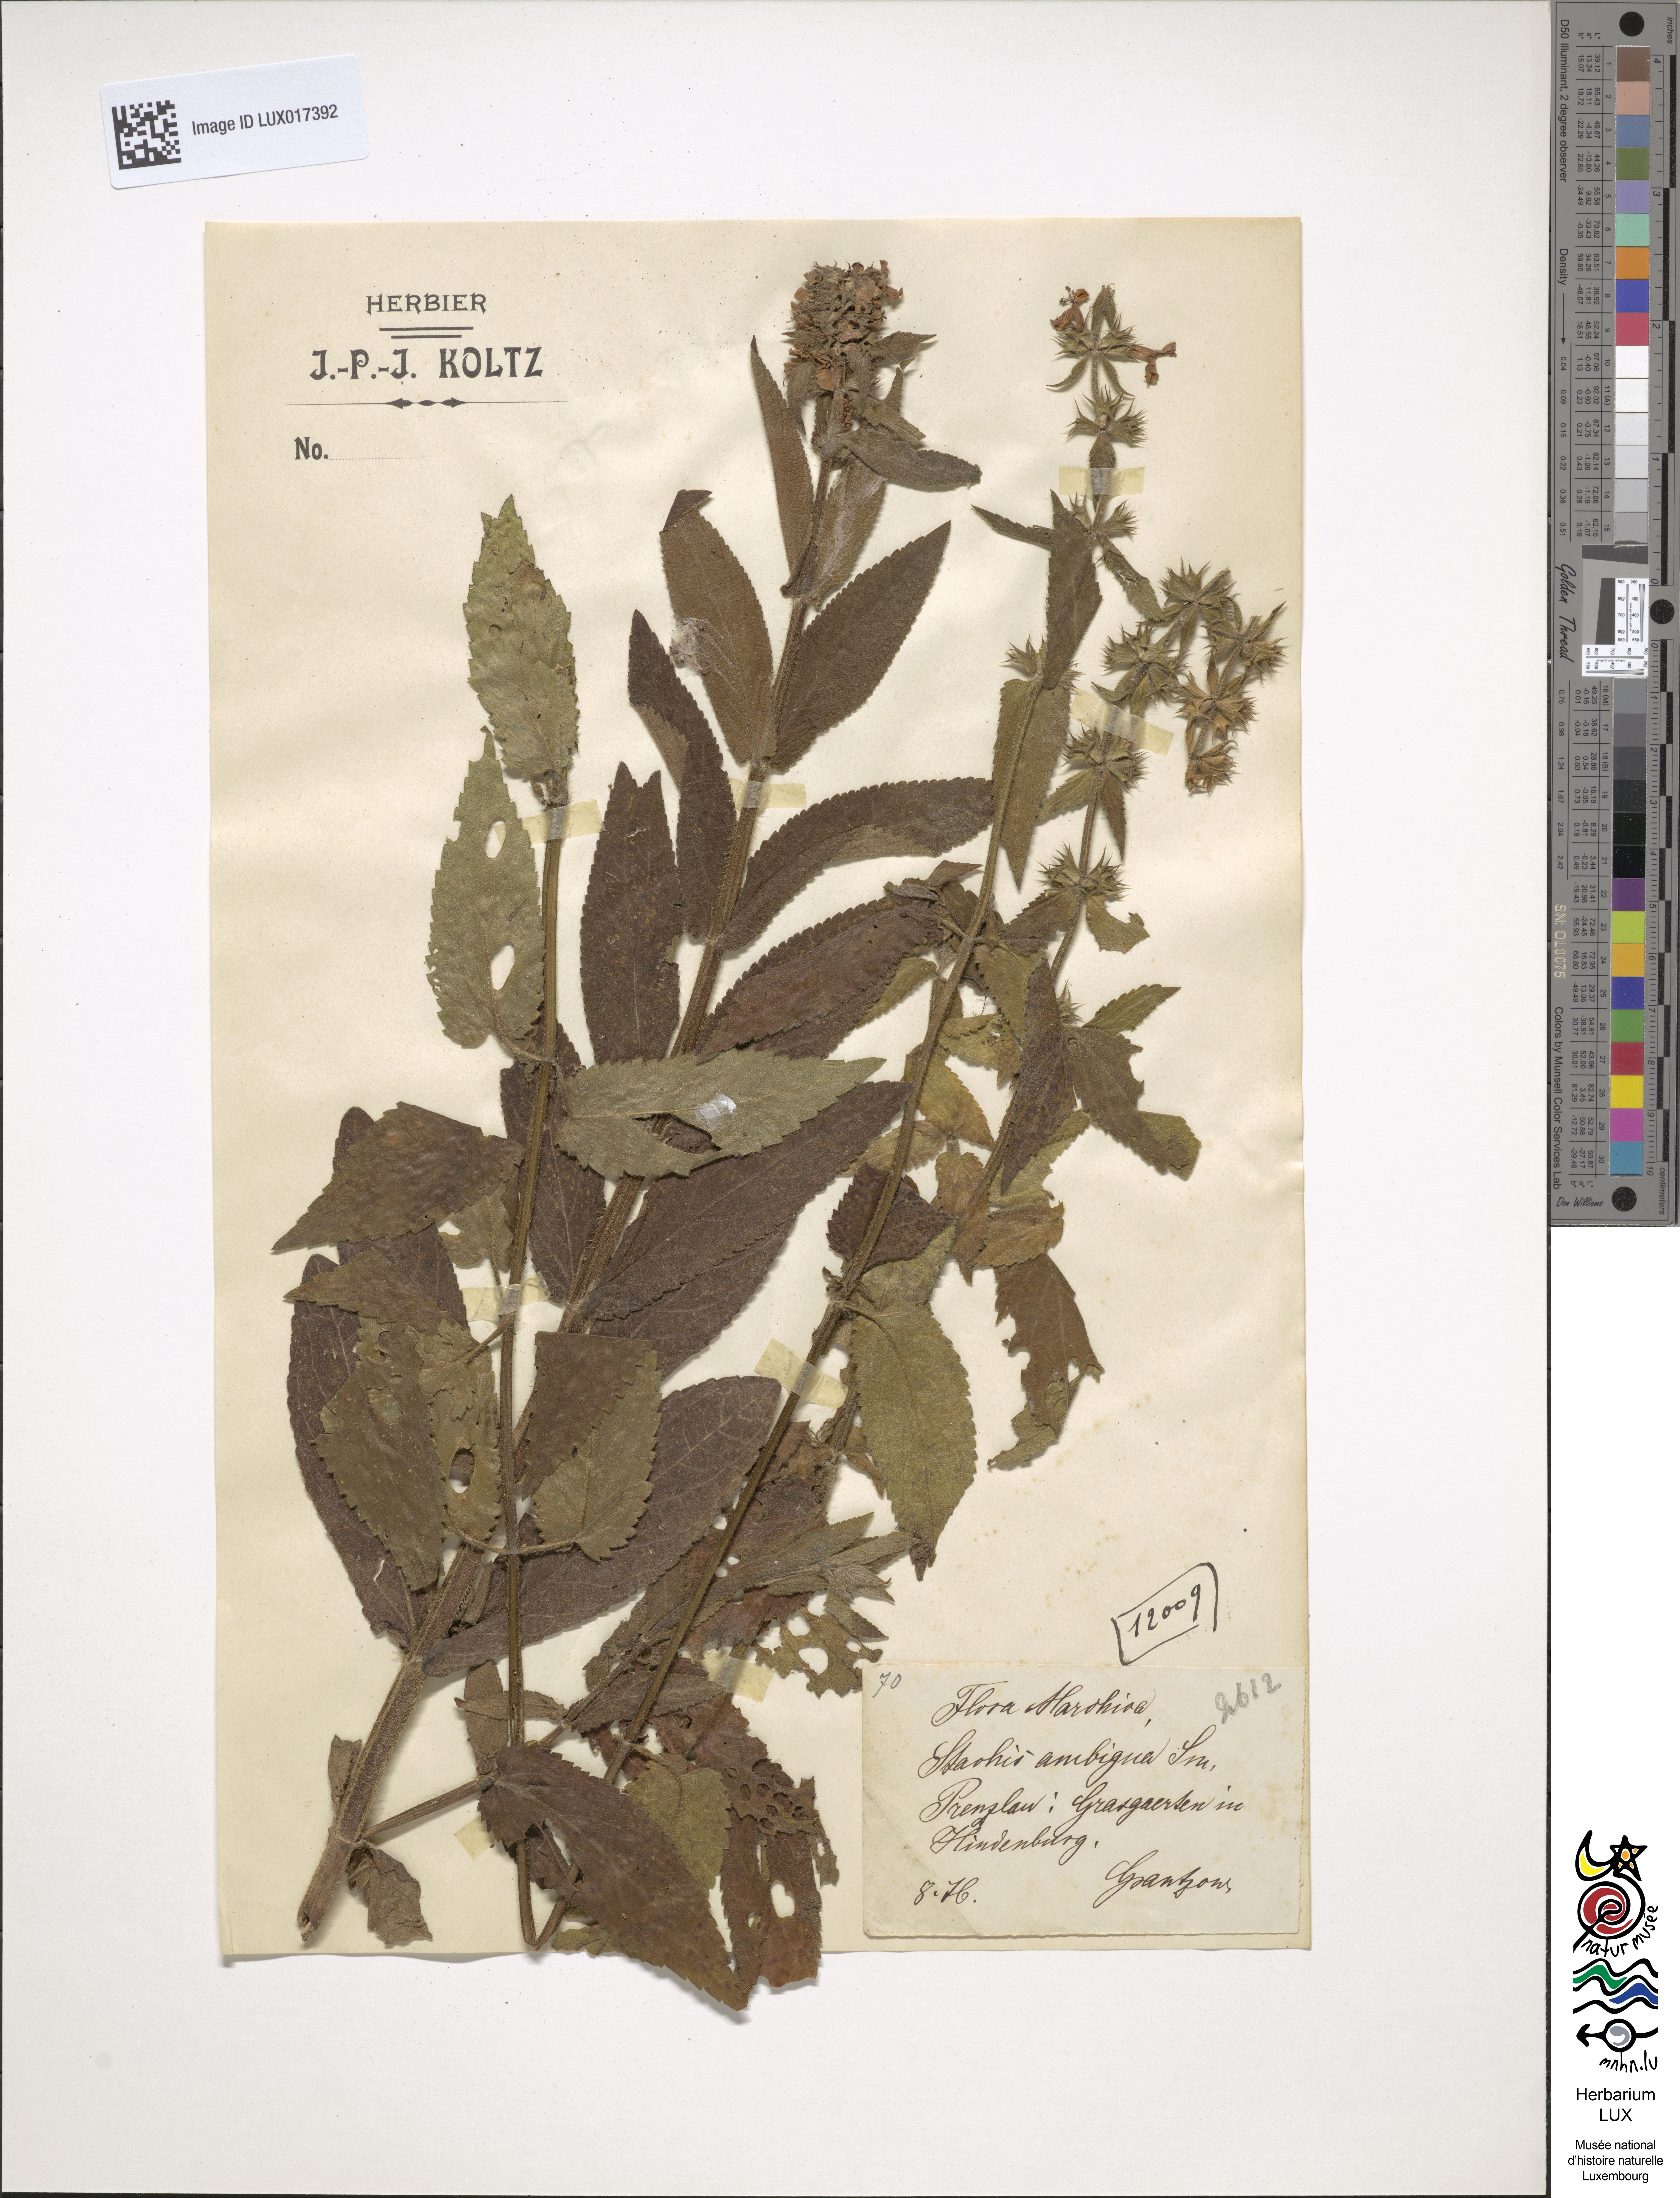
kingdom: Plantae
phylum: Tracheophyta
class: Magnoliopsida
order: Lamiales
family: Lamiaceae
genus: Stachys
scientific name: Stachys ambigua
